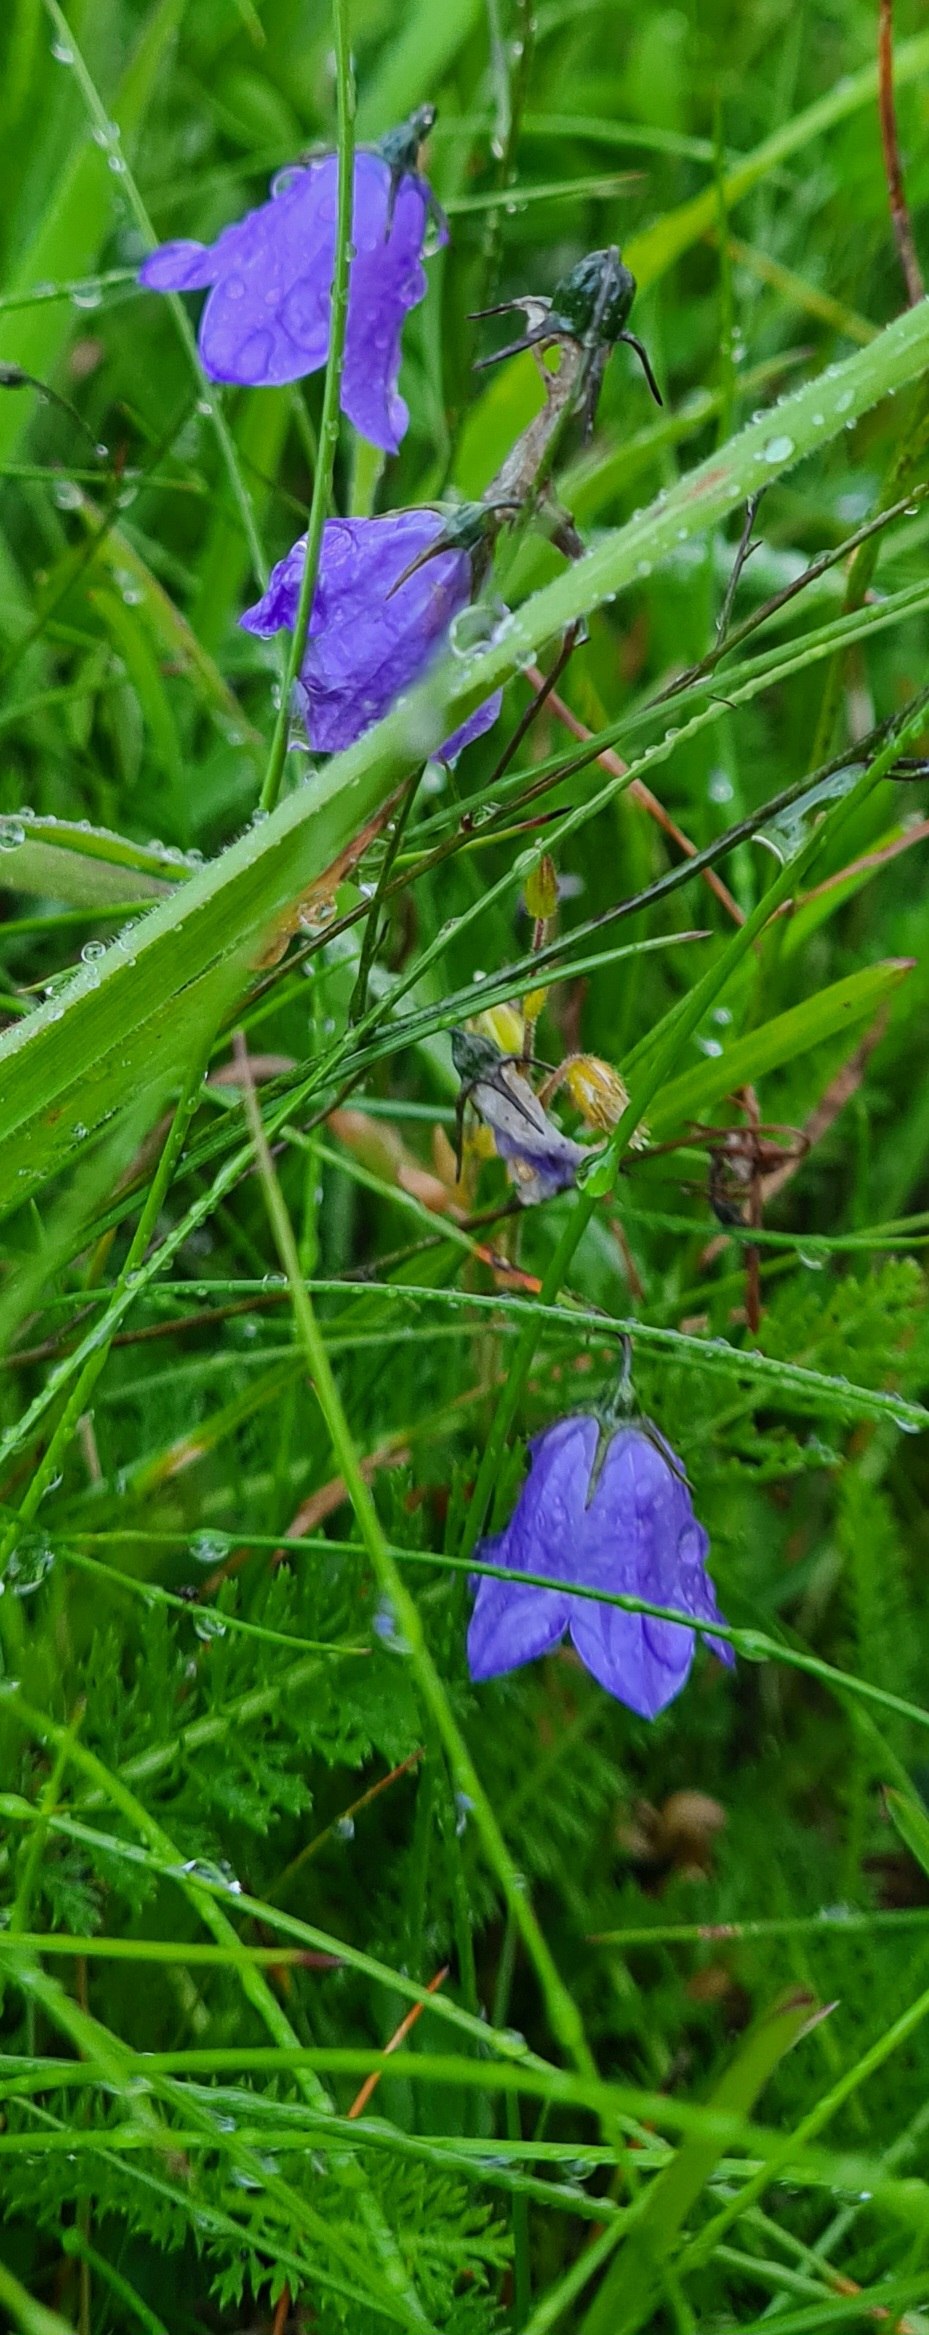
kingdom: Plantae
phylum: Tracheophyta
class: Magnoliopsida
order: Asterales
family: Campanulaceae
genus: Campanula
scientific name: Campanula rotundifolia
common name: Liden klokke
